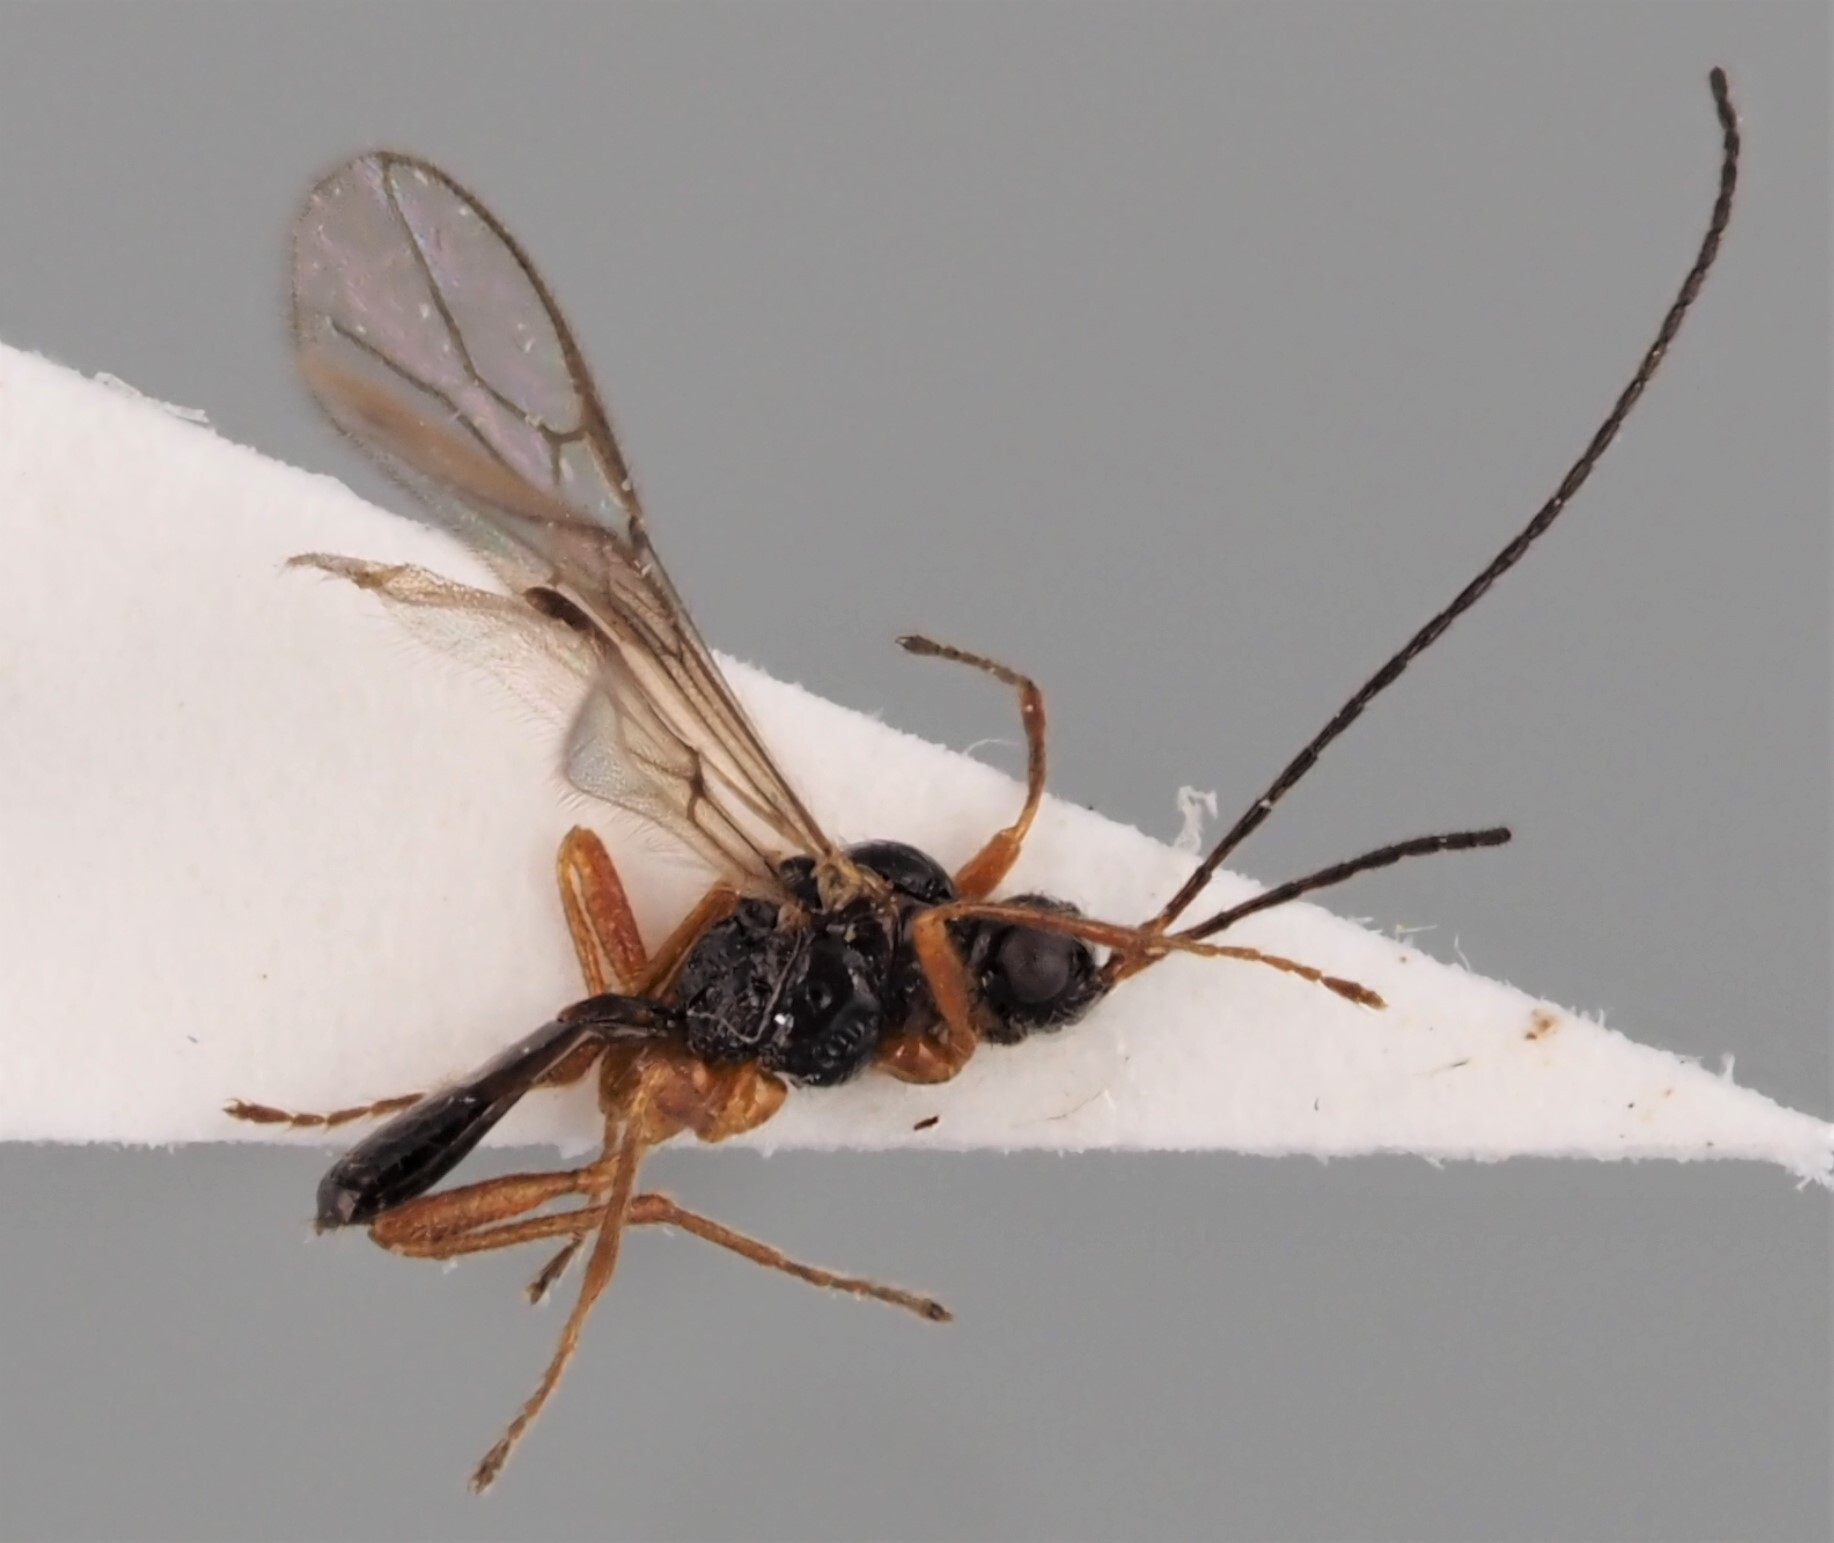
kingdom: Animalia
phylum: Arthropoda
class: Insecta
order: Hymenoptera
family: Braconidae
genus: Phaenocarpa
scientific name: Phaenocarpa eunice
